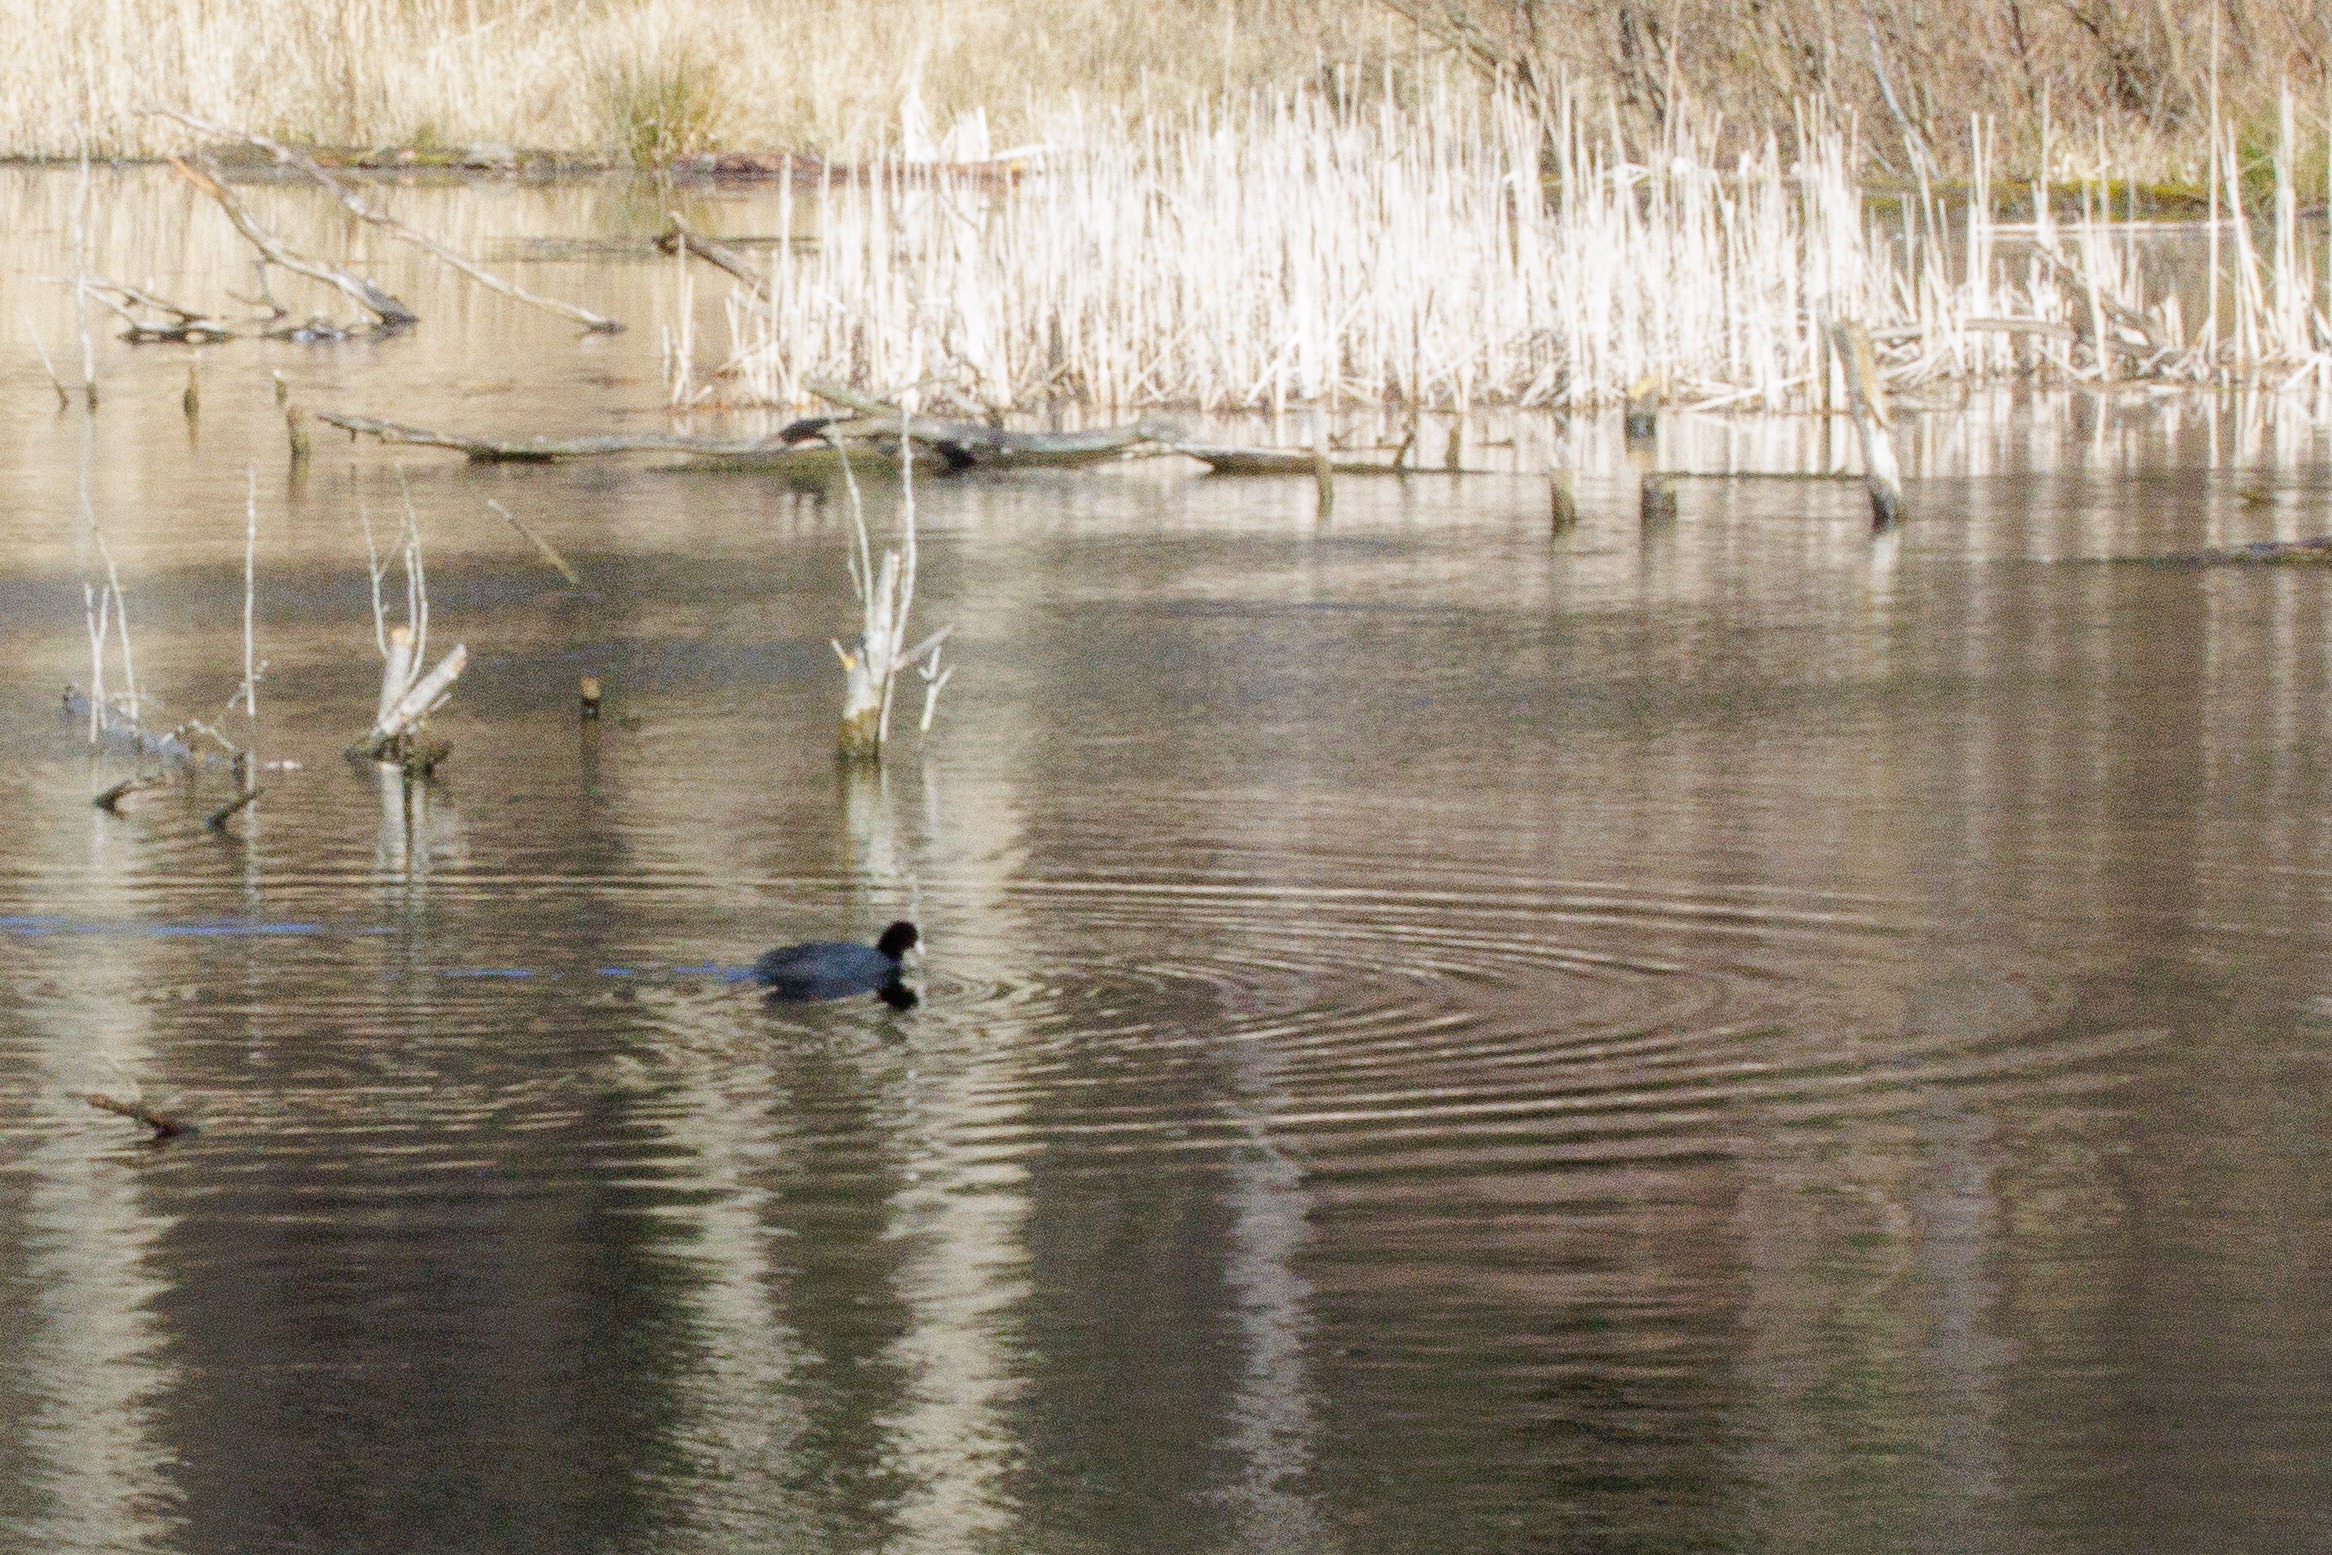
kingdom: Animalia
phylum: Chordata
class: Aves
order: Gruiformes
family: Rallidae
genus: Fulica
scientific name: Fulica atra
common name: Blishøne
